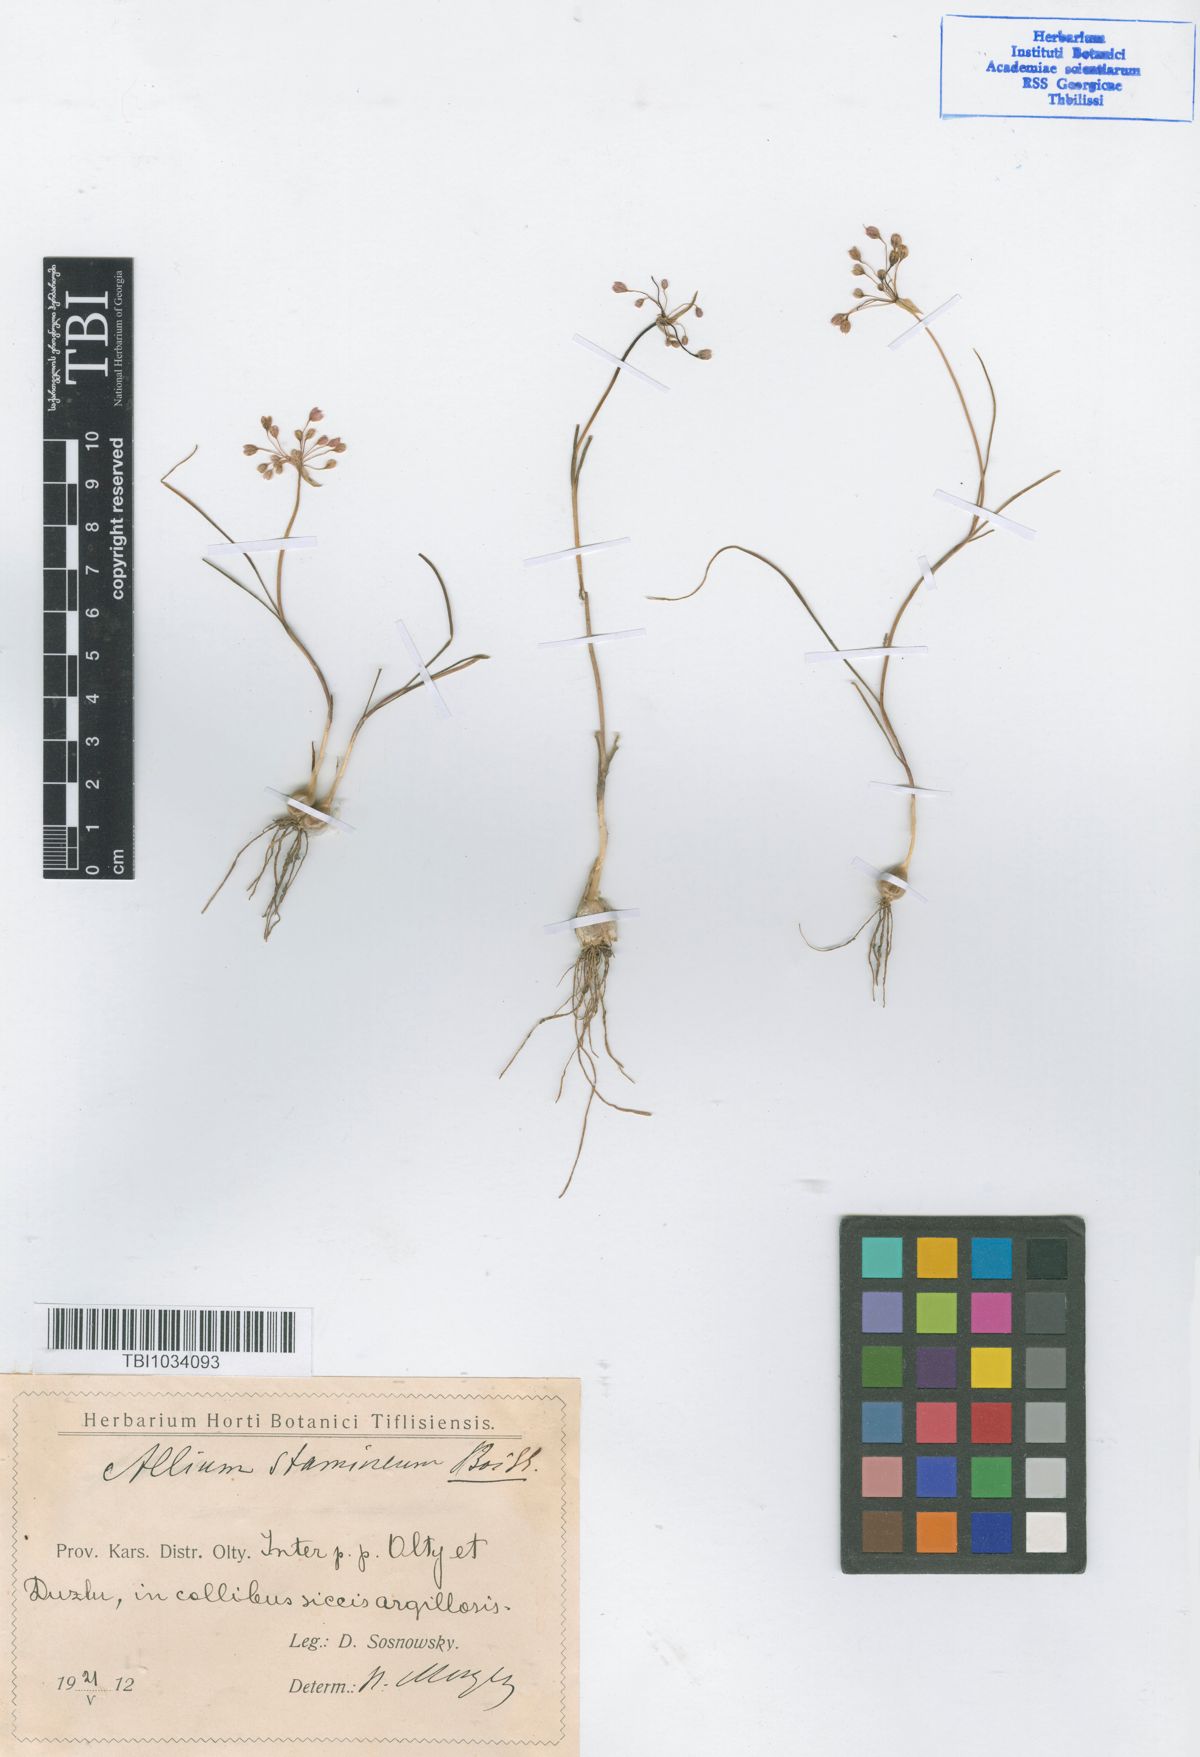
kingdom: Plantae
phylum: Tracheophyta
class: Liliopsida
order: Asparagales
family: Amaryllidaceae
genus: Allium
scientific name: Allium stamineum
